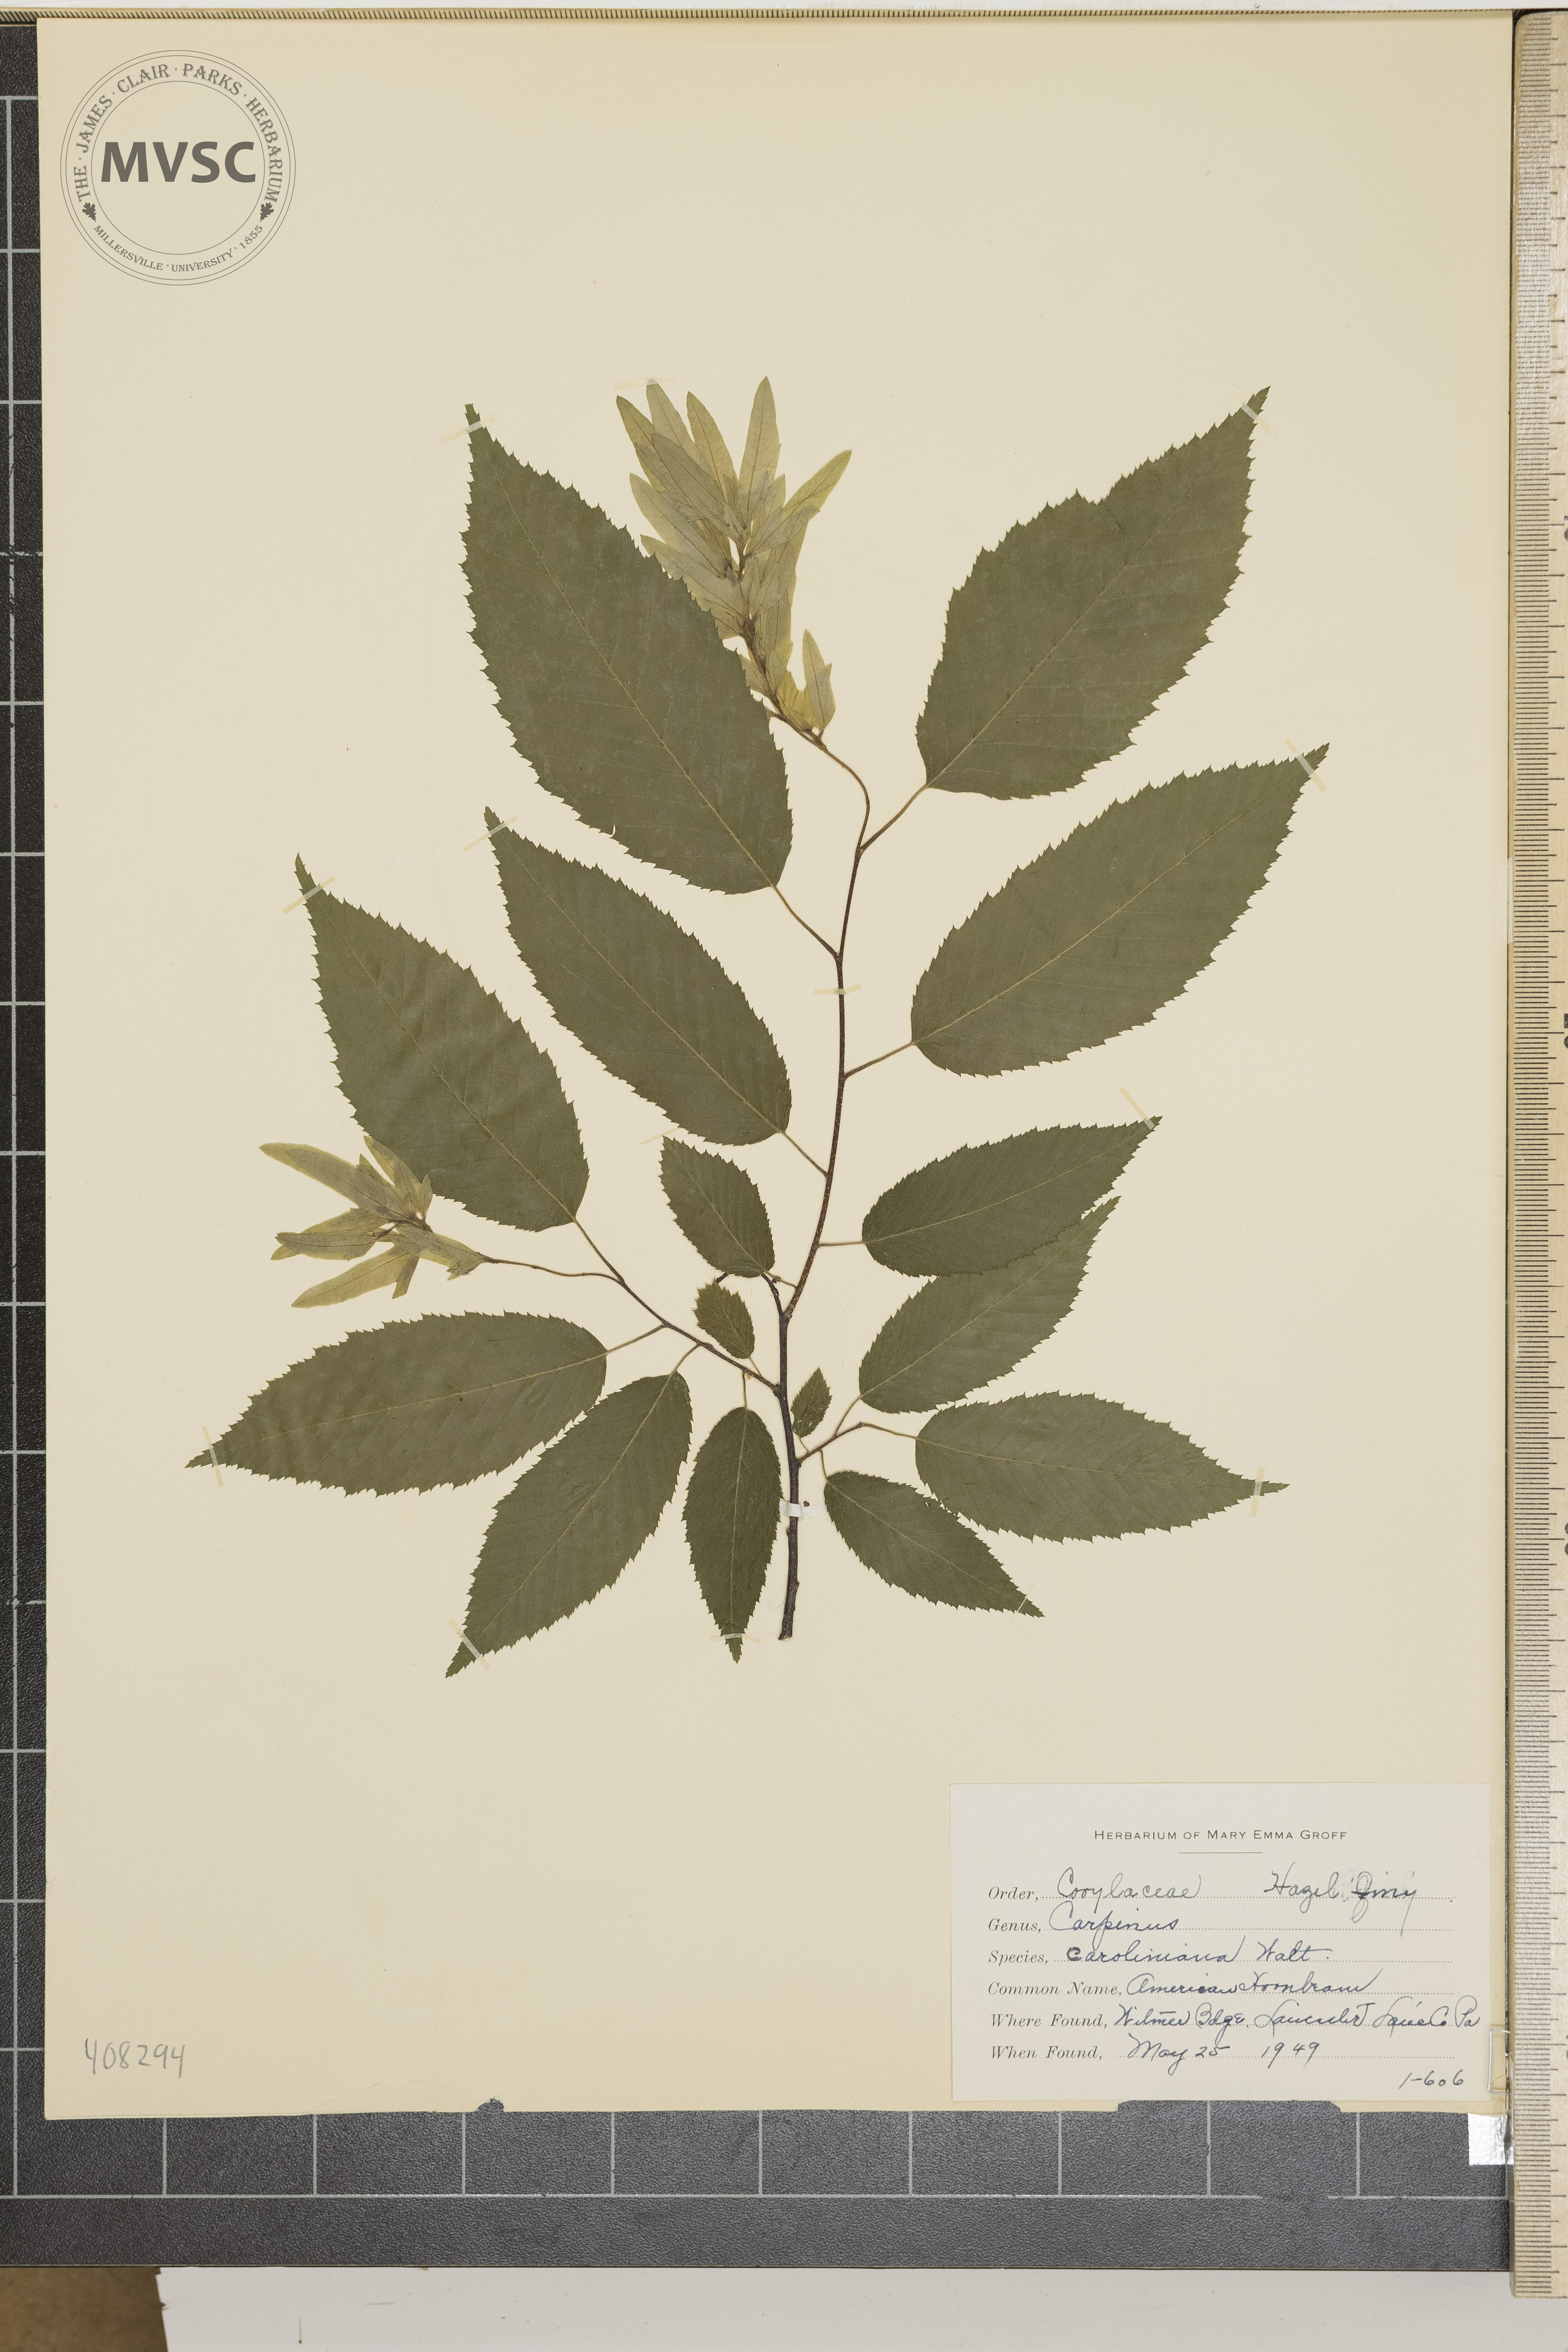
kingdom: Plantae
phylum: Tracheophyta
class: Magnoliopsida
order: Fagales
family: Betulaceae
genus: Carpinus
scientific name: Carpinus caroliniana
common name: American Hornbeam
